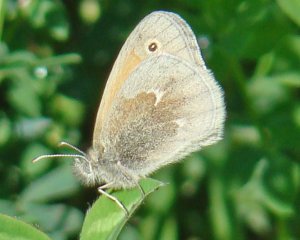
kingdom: Animalia
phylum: Arthropoda
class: Insecta
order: Lepidoptera
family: Nymphalidae
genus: Coenonympha
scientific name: Coenonympha tullia
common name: Large Heath
